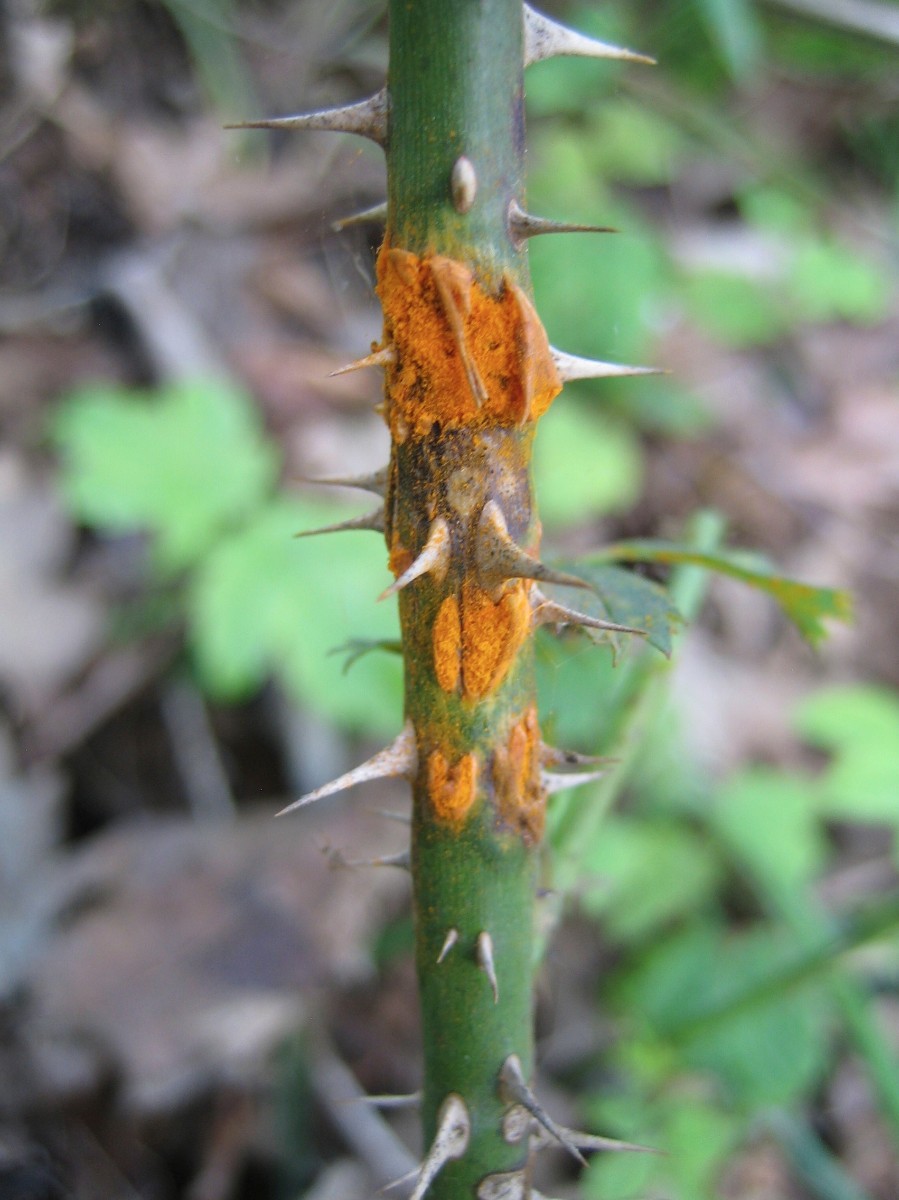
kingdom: Fungi
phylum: Basidiomycota
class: Pucciniomycetes
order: Pucciniales
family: Phragmidiaceae
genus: Phragmidium
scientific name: Phragmidium
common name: flercellerust
